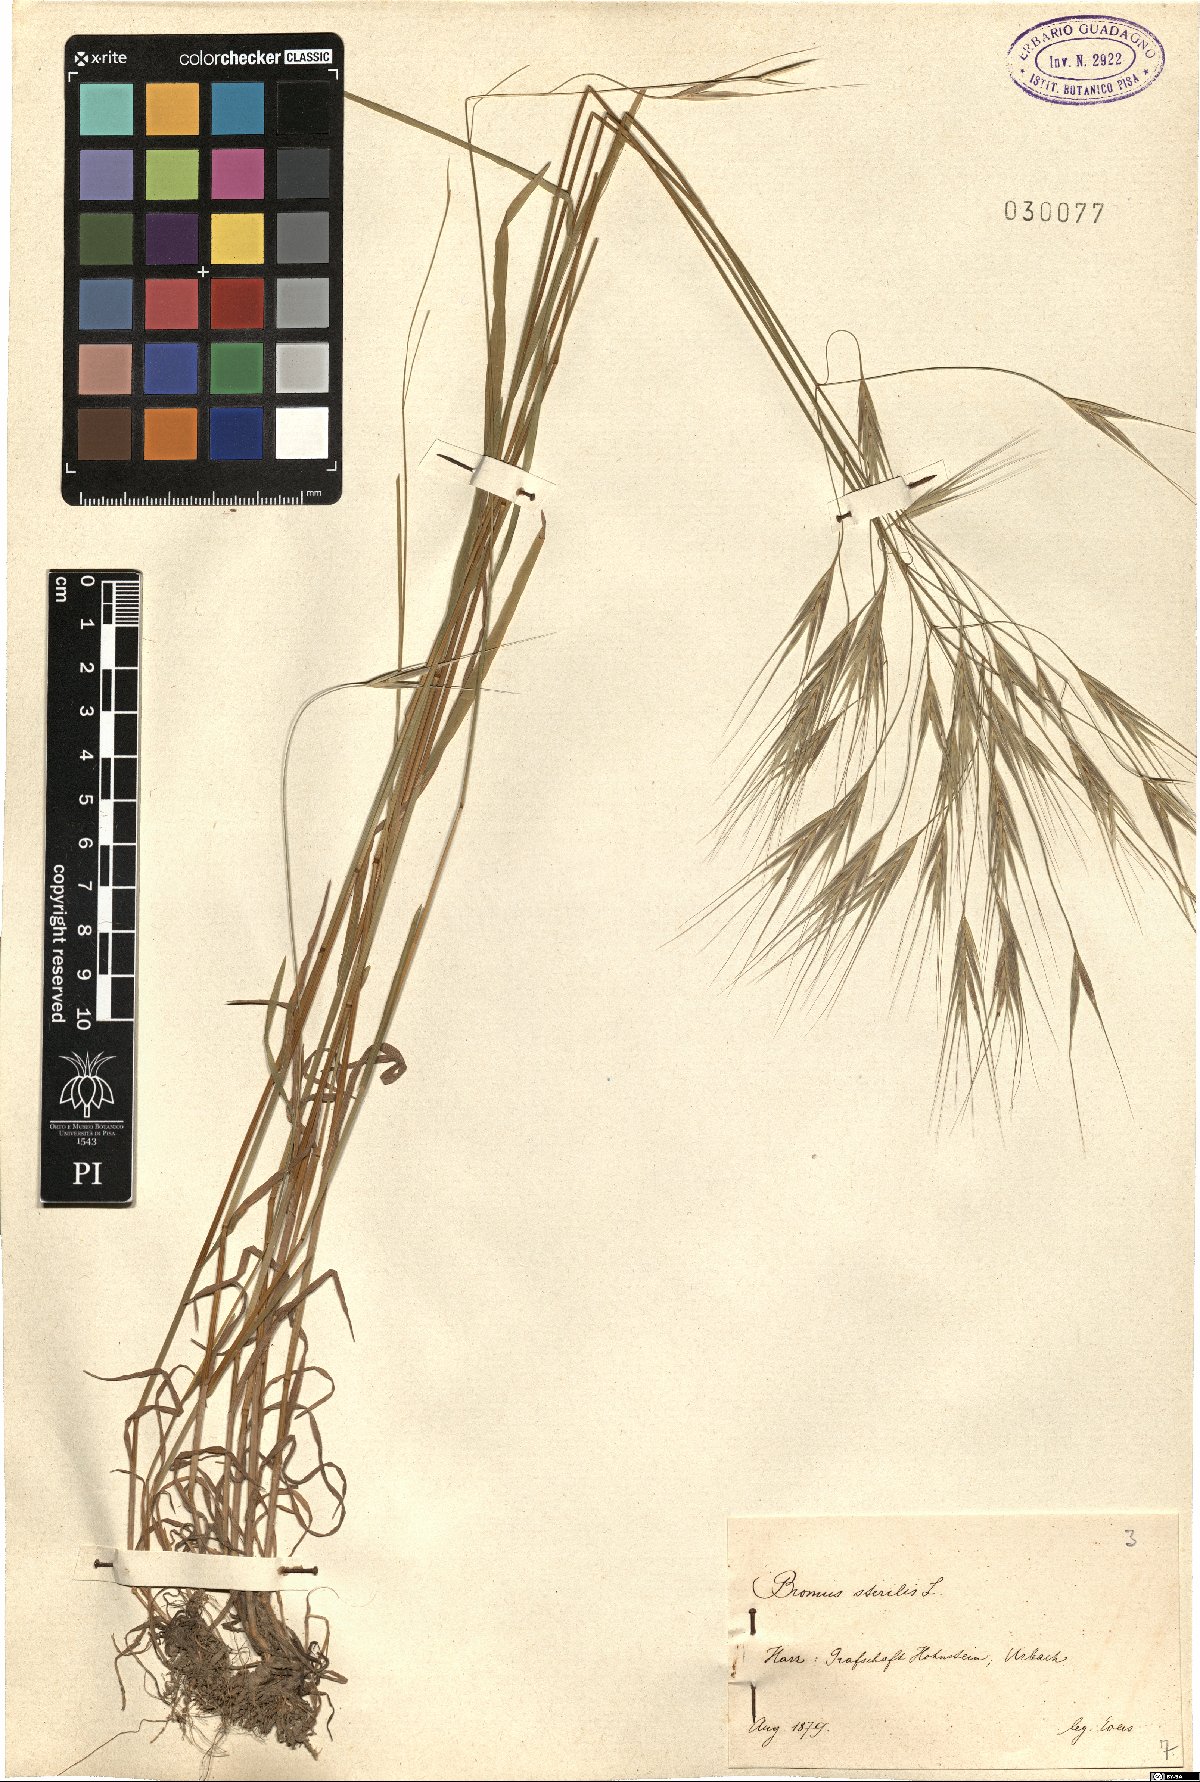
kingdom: Plantae
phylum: Tracheophyta
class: Liliopsida
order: Poales
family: Poaceae
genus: Bromus
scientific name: Bromus sterilis
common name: Poverty brome
